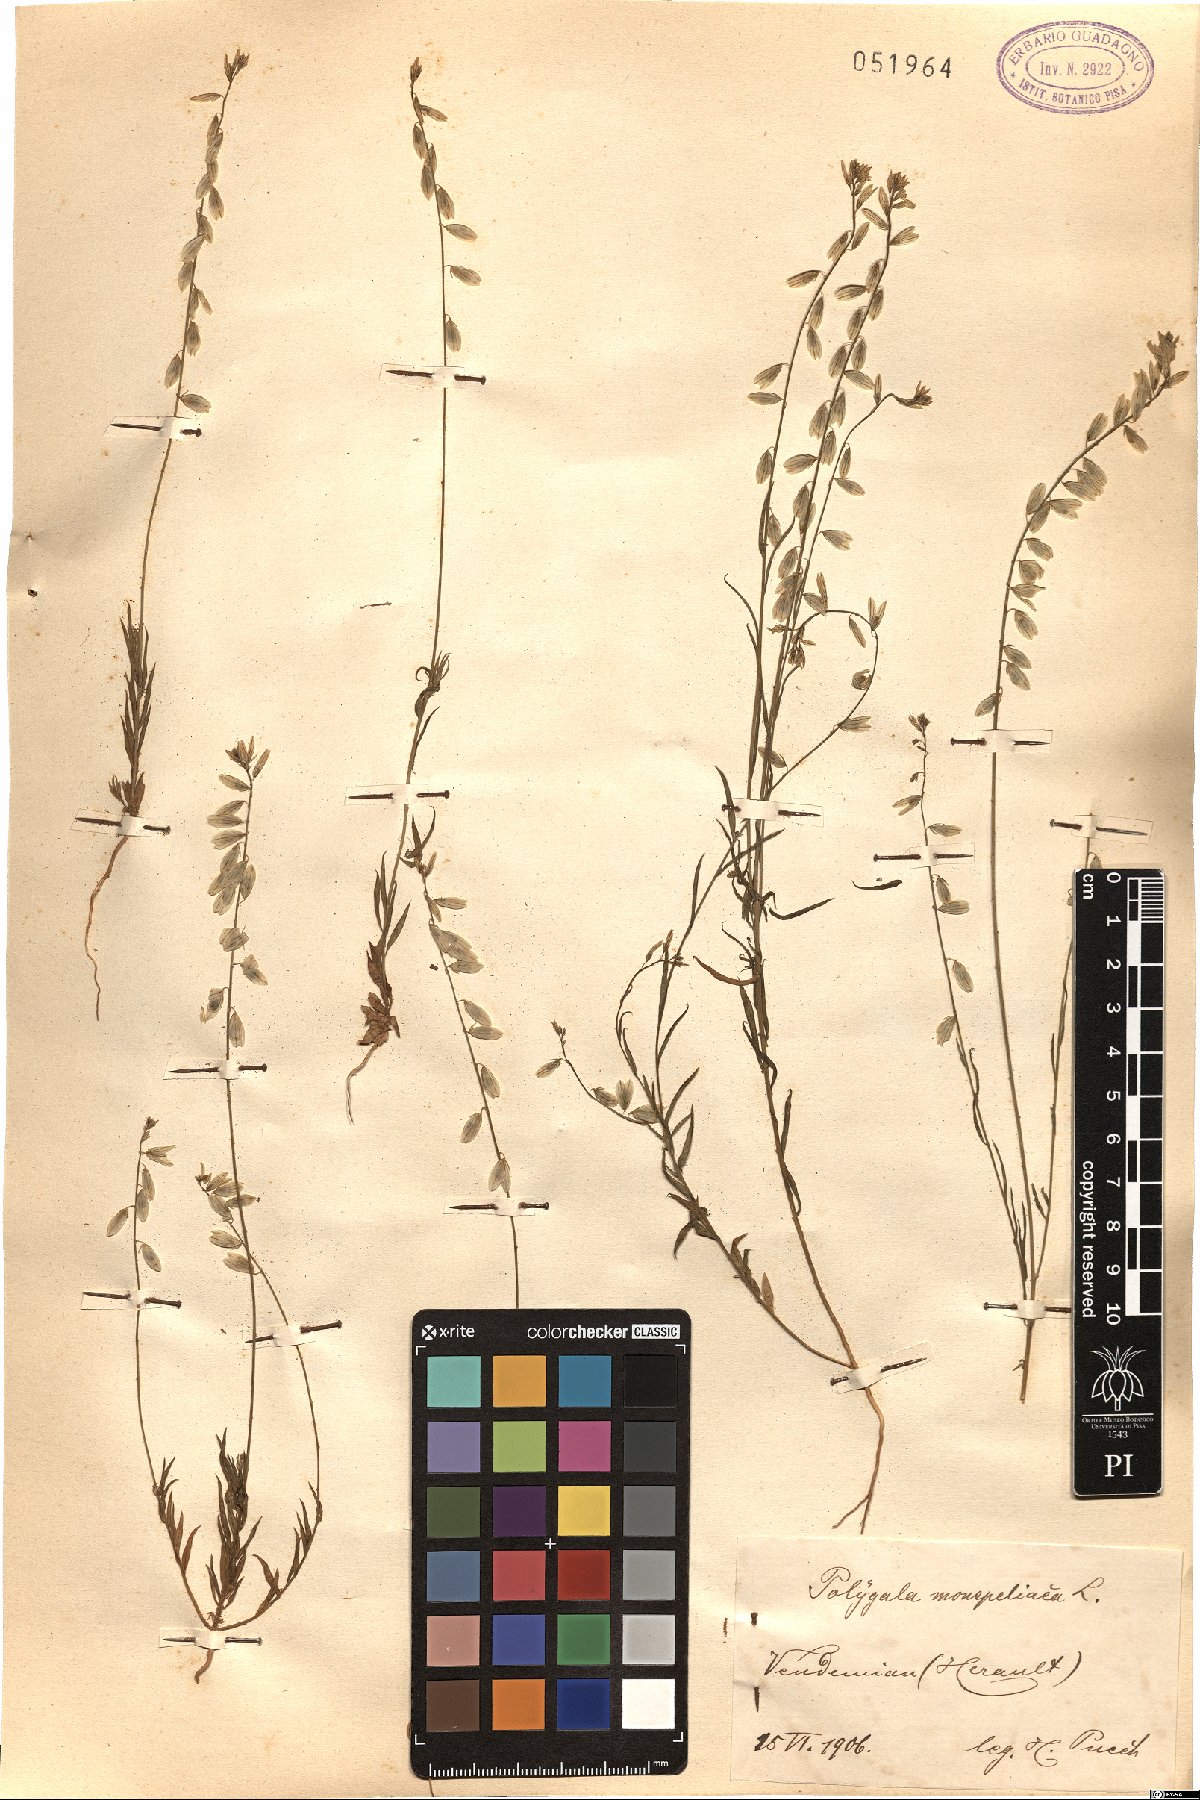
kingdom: Plantae
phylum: Tracheophyta
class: Magnoliopsida
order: Fabales
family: Polygalaceae
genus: Polygala
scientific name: Polygala monspeliaca
